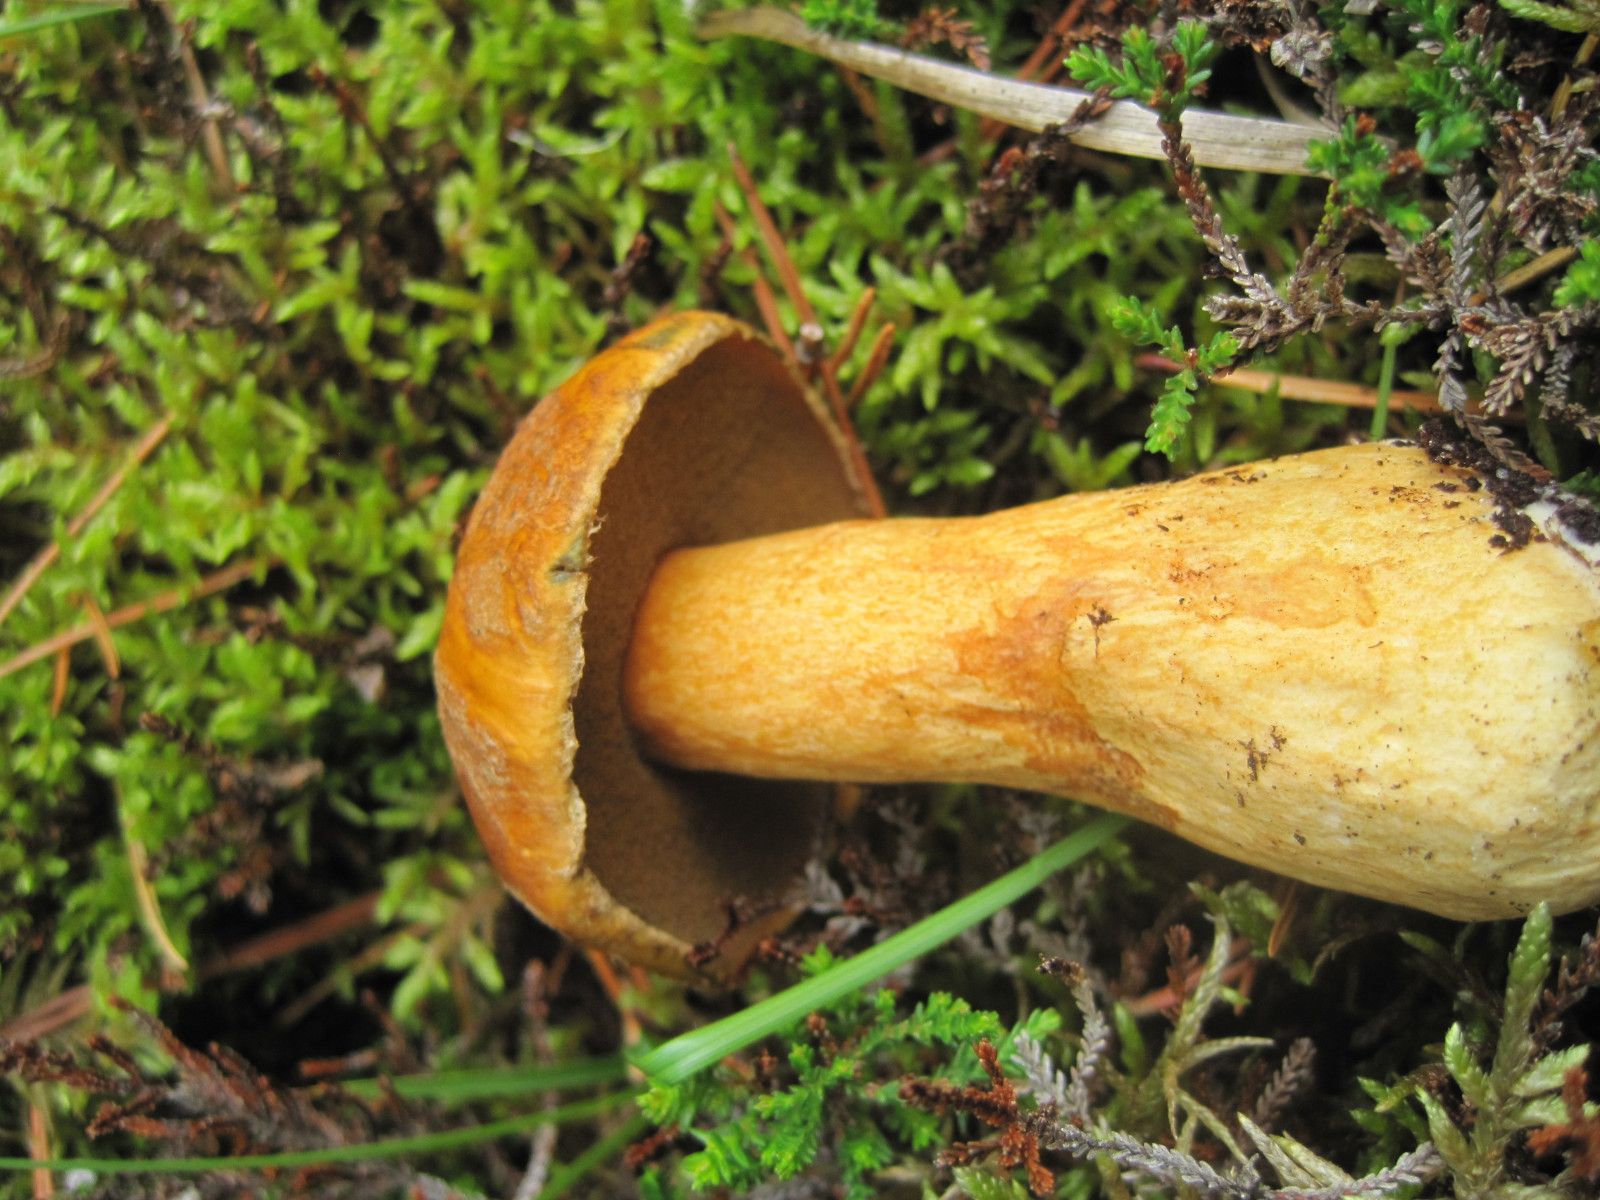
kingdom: Fungi
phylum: Basidiomycota
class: Agaricomycetes
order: Boletales
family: Suillaceae
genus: Suillus
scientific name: Suillus variegatus
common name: broget slimrørhat
